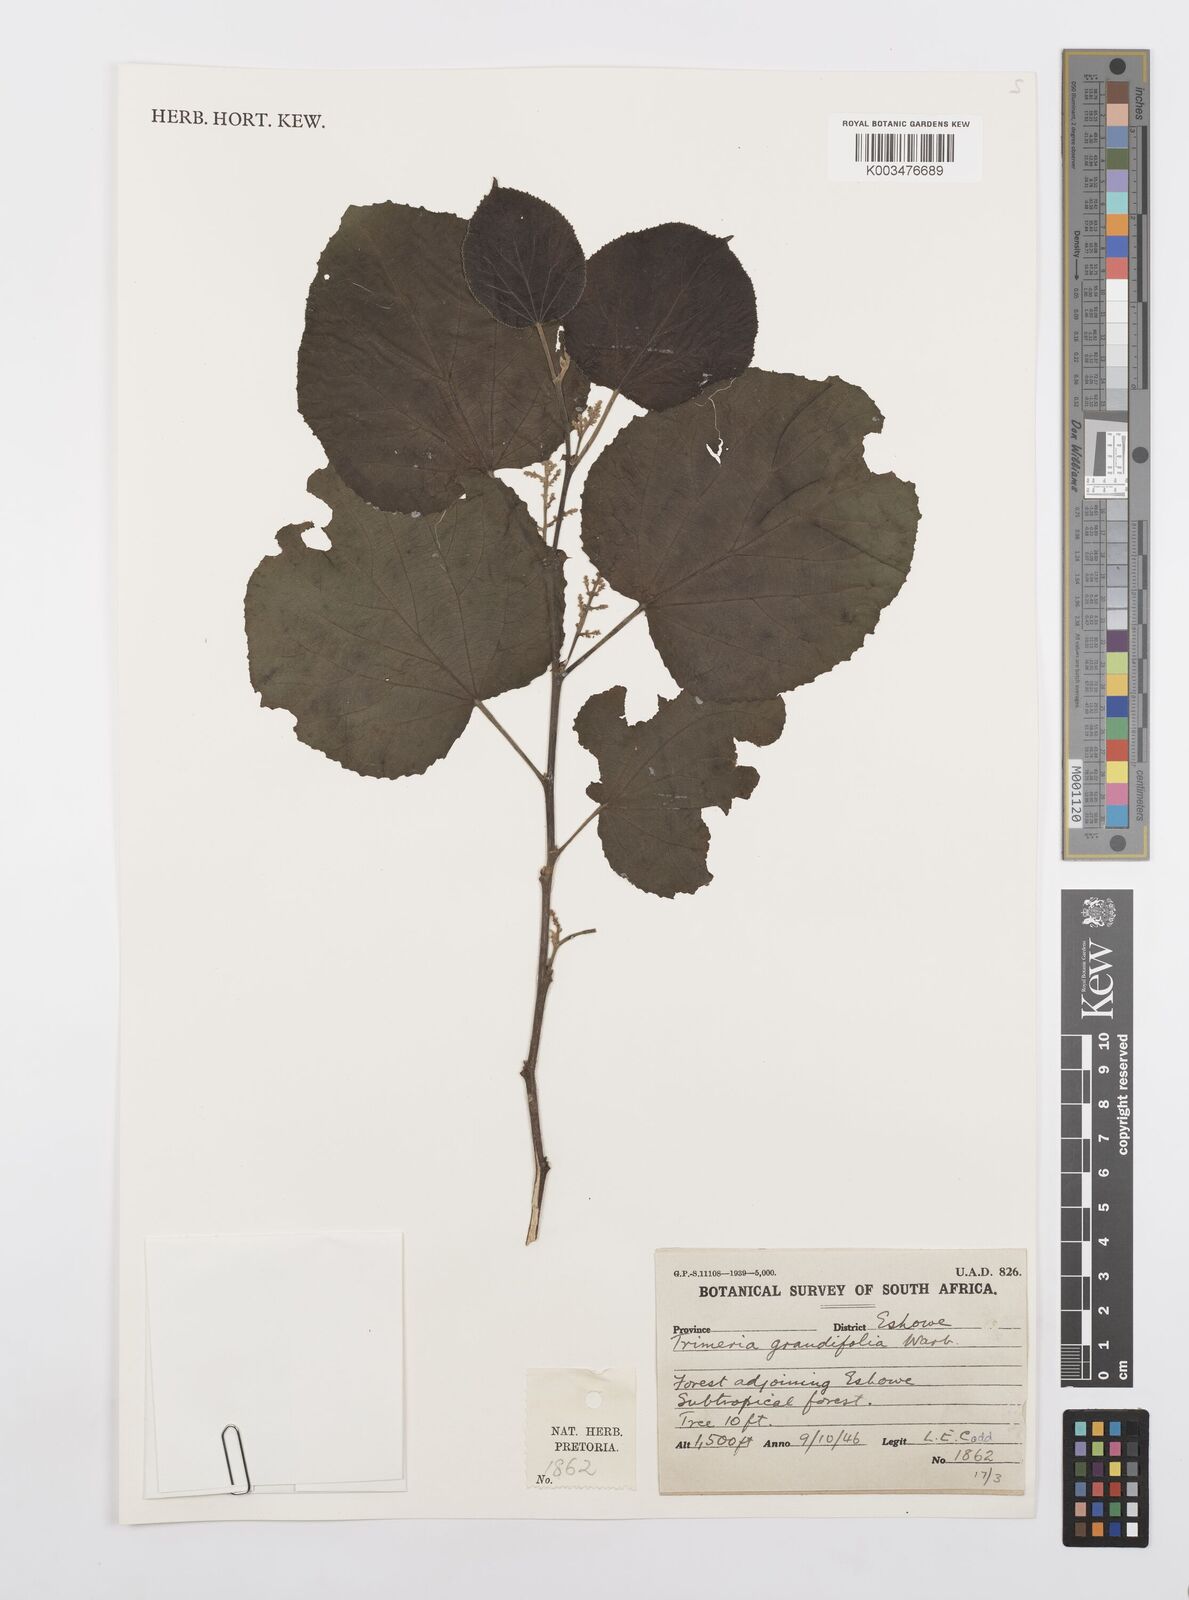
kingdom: Plantae
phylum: Tracheophyta
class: Magnoliopsida
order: Malpighiales
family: Salicaceae
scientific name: Salicaceae
